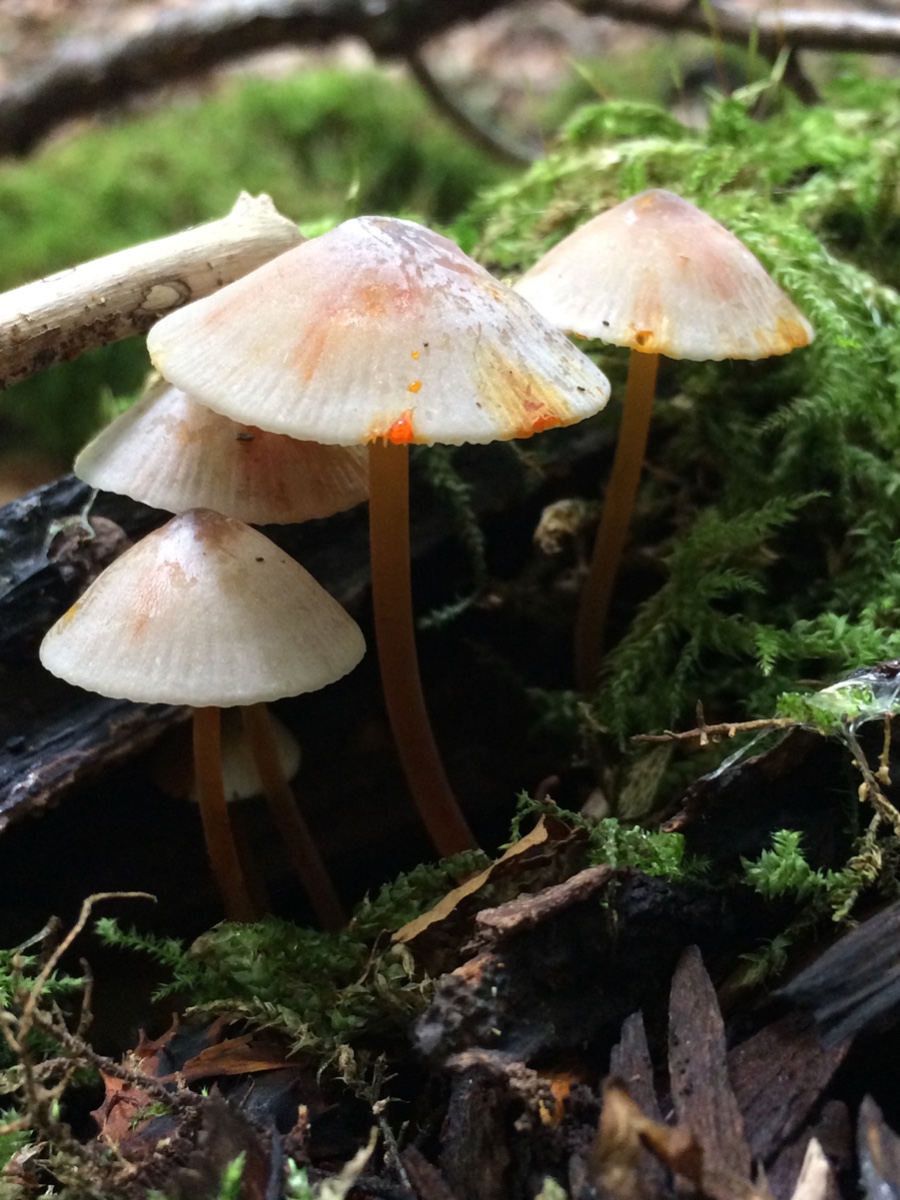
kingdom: Fungi
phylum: Basidiomycota
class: Agaricomycetes
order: Agaricales
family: Mycenaceae
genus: Mycena
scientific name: Mycena crocata
